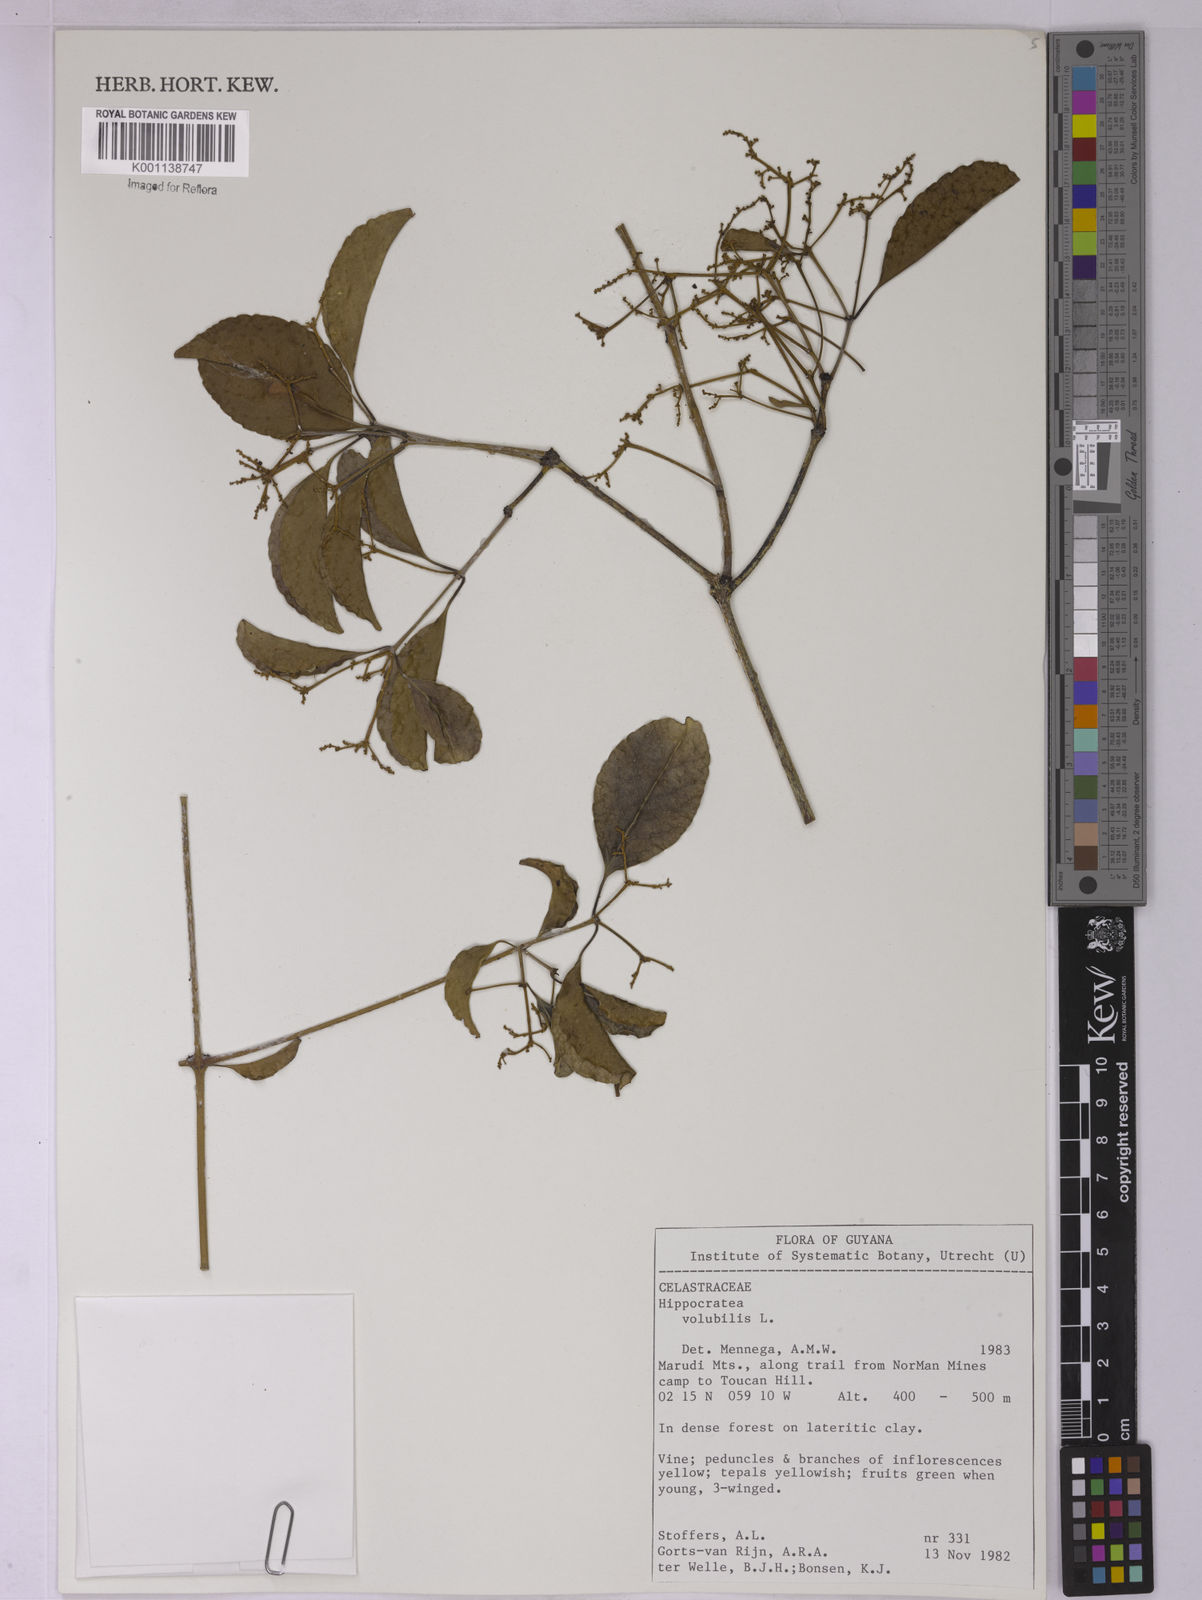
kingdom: Plantae
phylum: Tracheophyta
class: Magnoliopsida
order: Celastrales
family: Celastraceae
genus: Hippocratea
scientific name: Hippocratea volubilis
